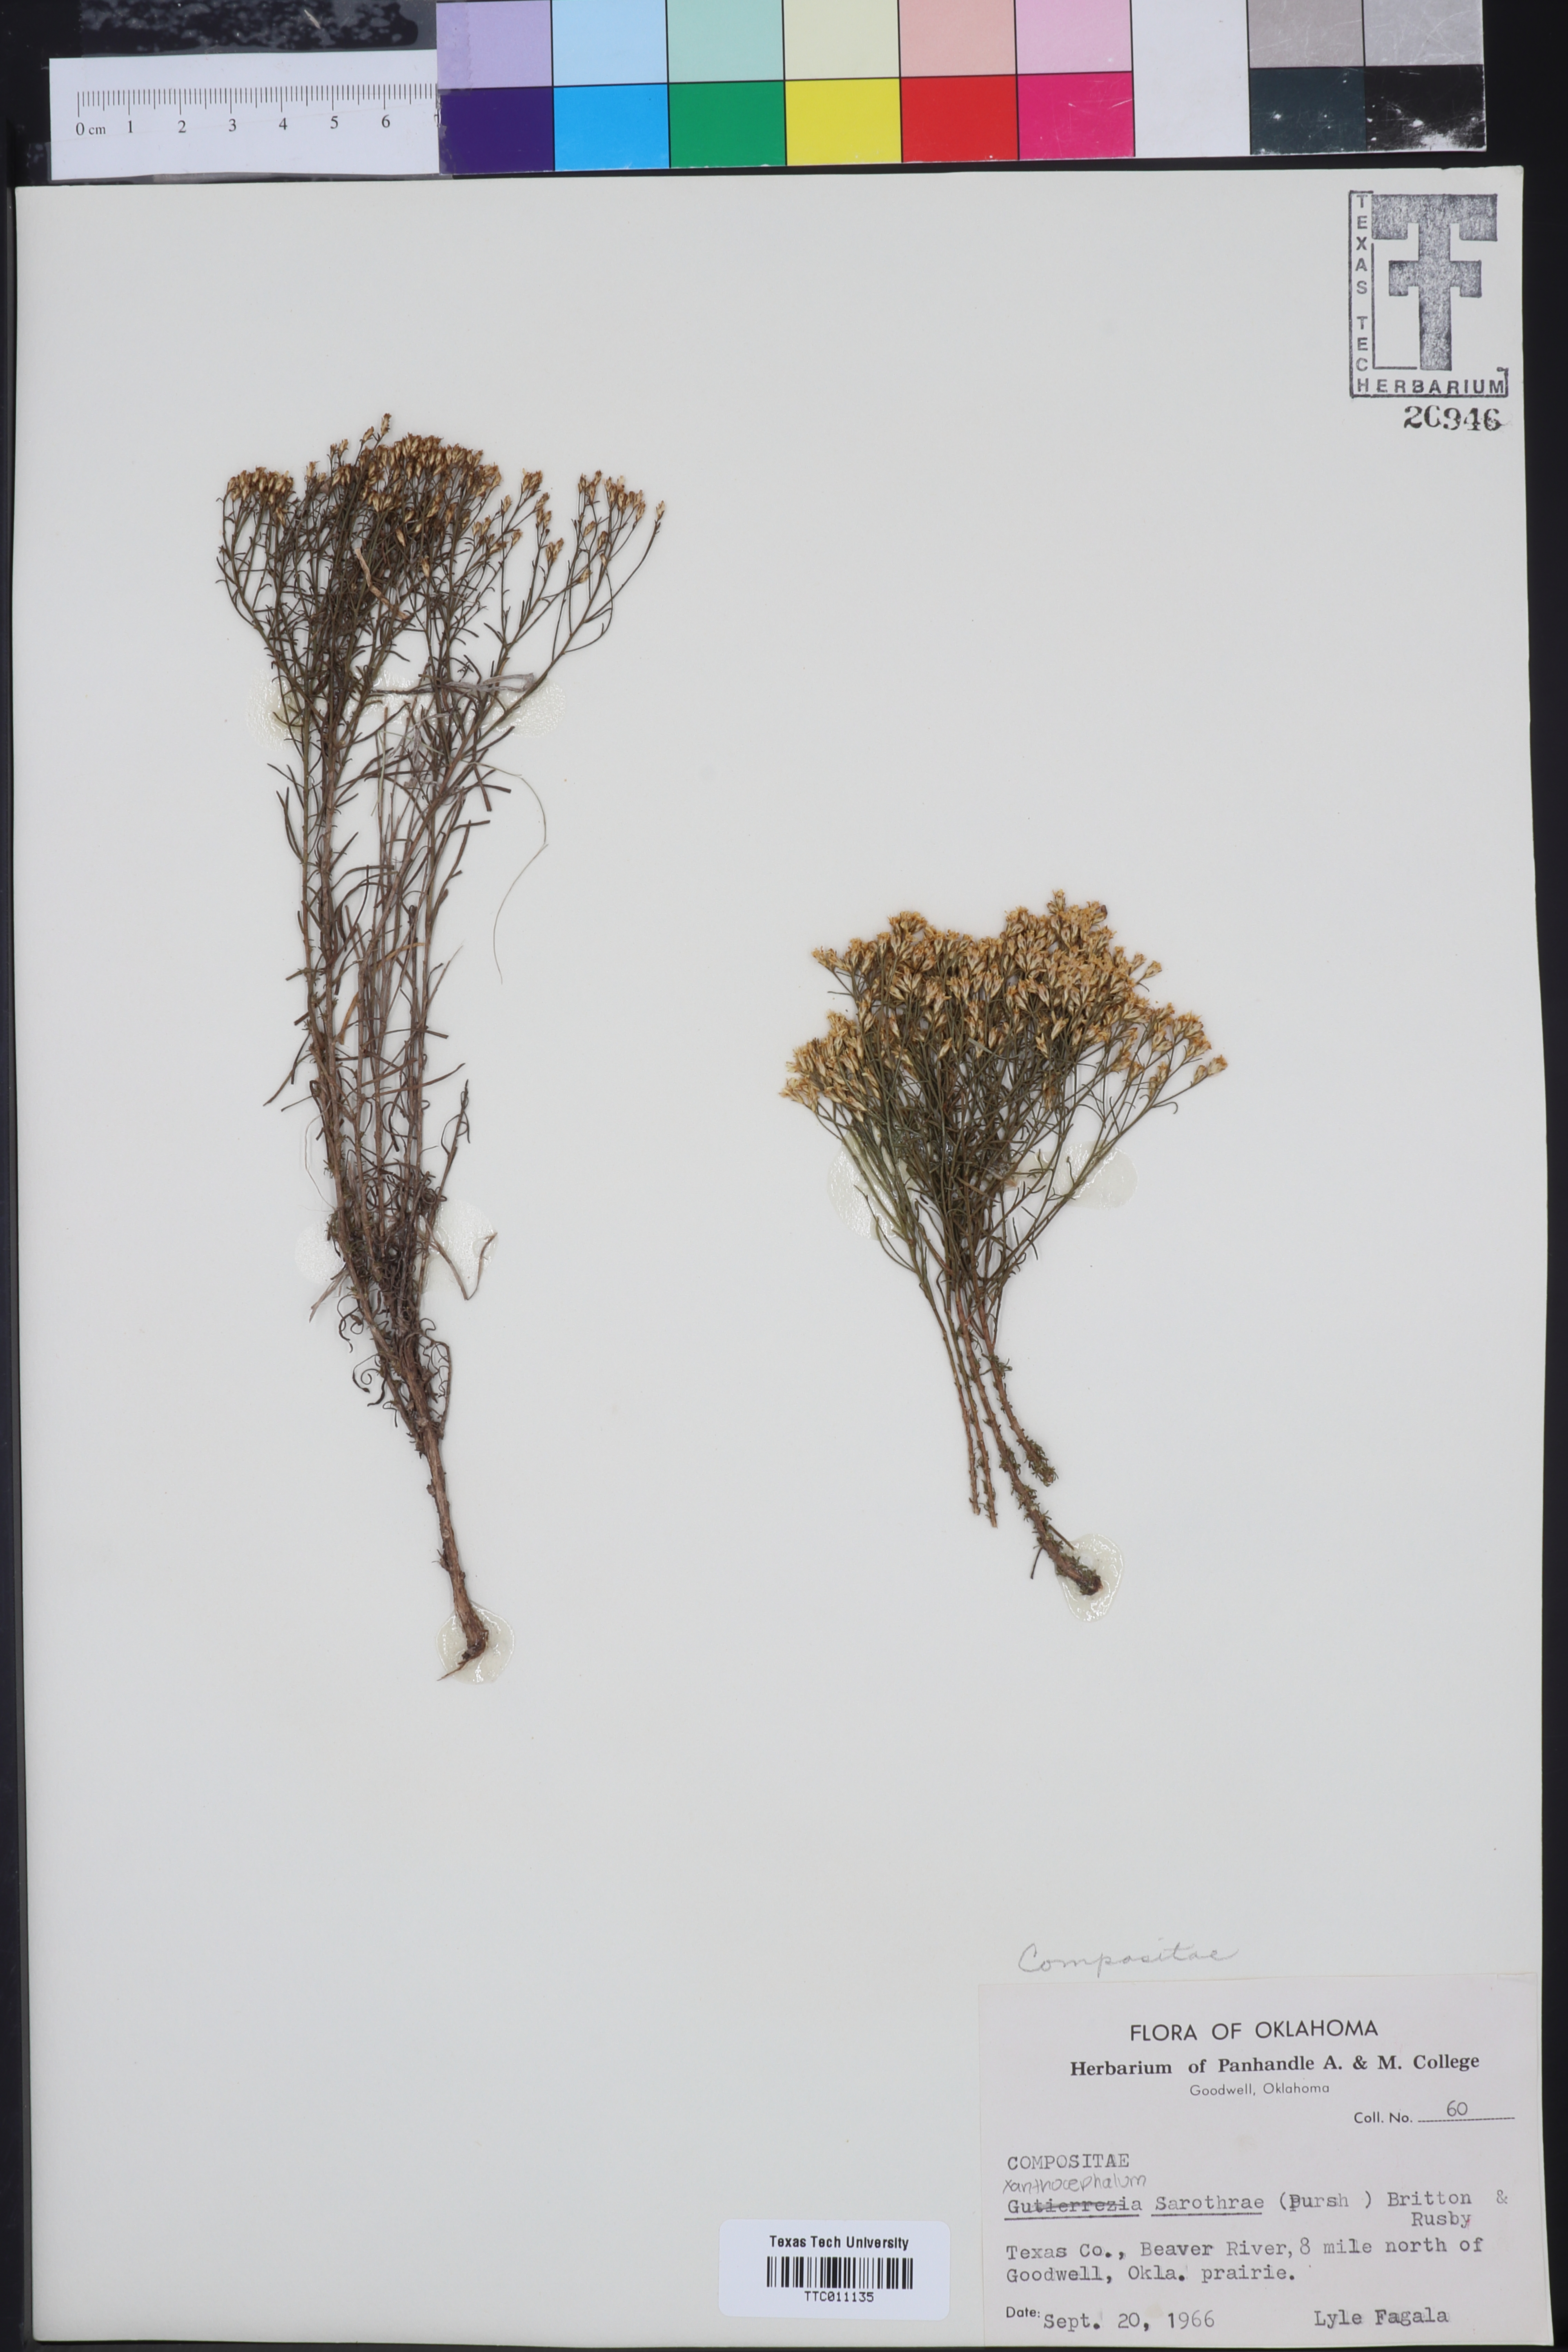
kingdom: Plantae
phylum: Tracheophyta
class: Magnoliopsida
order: Asterales
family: Asteraceae
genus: Gutierrezia
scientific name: Gutierrezia sarothrae
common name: Broom snakeweed
